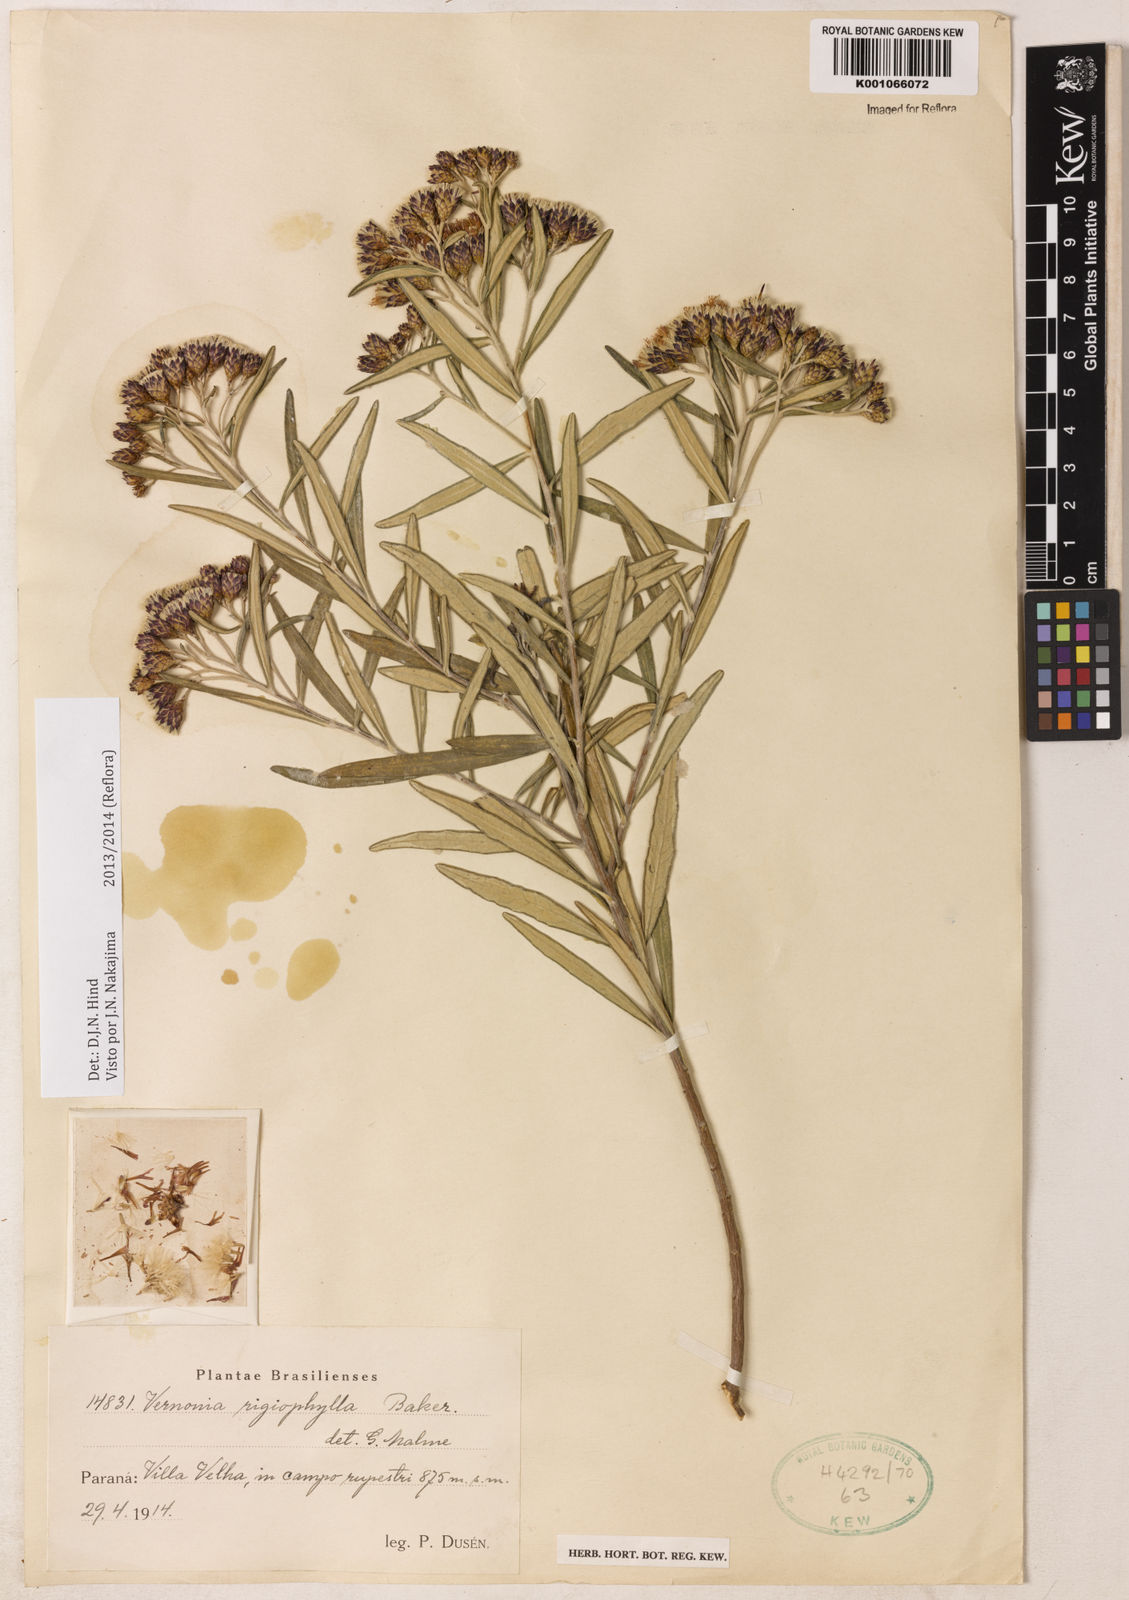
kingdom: Plantae
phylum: Tracheophyta
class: Magnoliopsida
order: Asterales
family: Asteraceae
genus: Vernonia
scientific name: Vernonia
